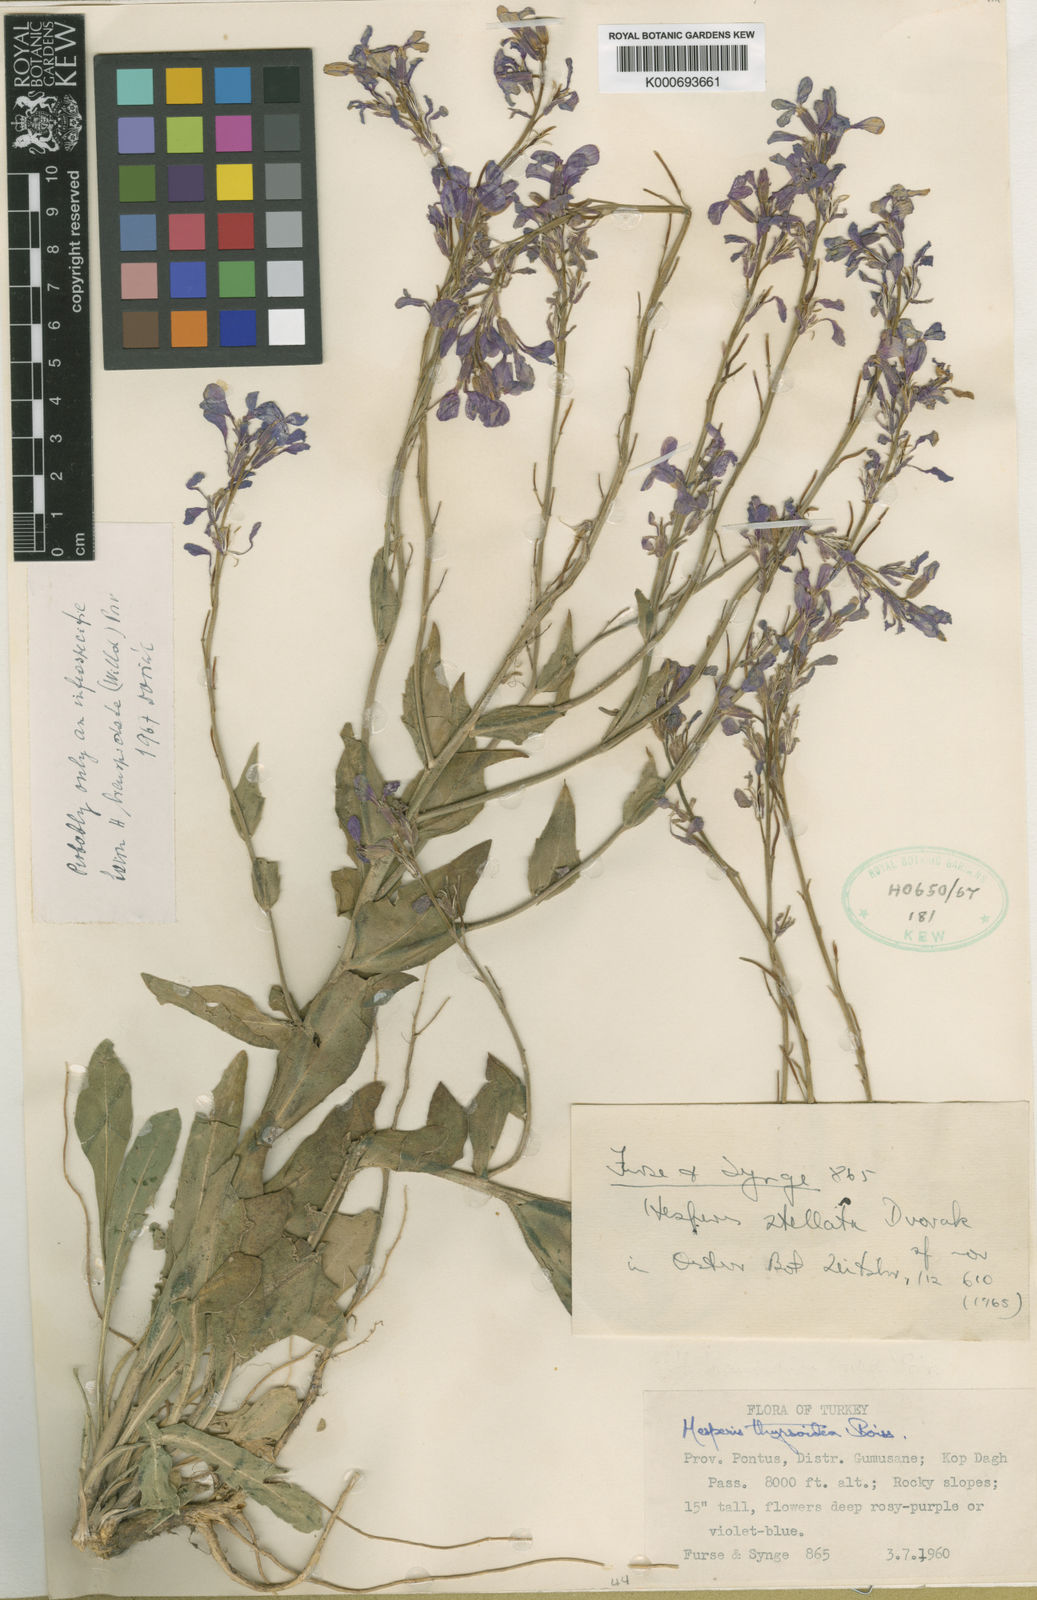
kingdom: Plantae
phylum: Tracheophyta
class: Magnoliopsida
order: Brassicales
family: Brassicaceae
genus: Hesperis
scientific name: Hesperis bicuspidata
